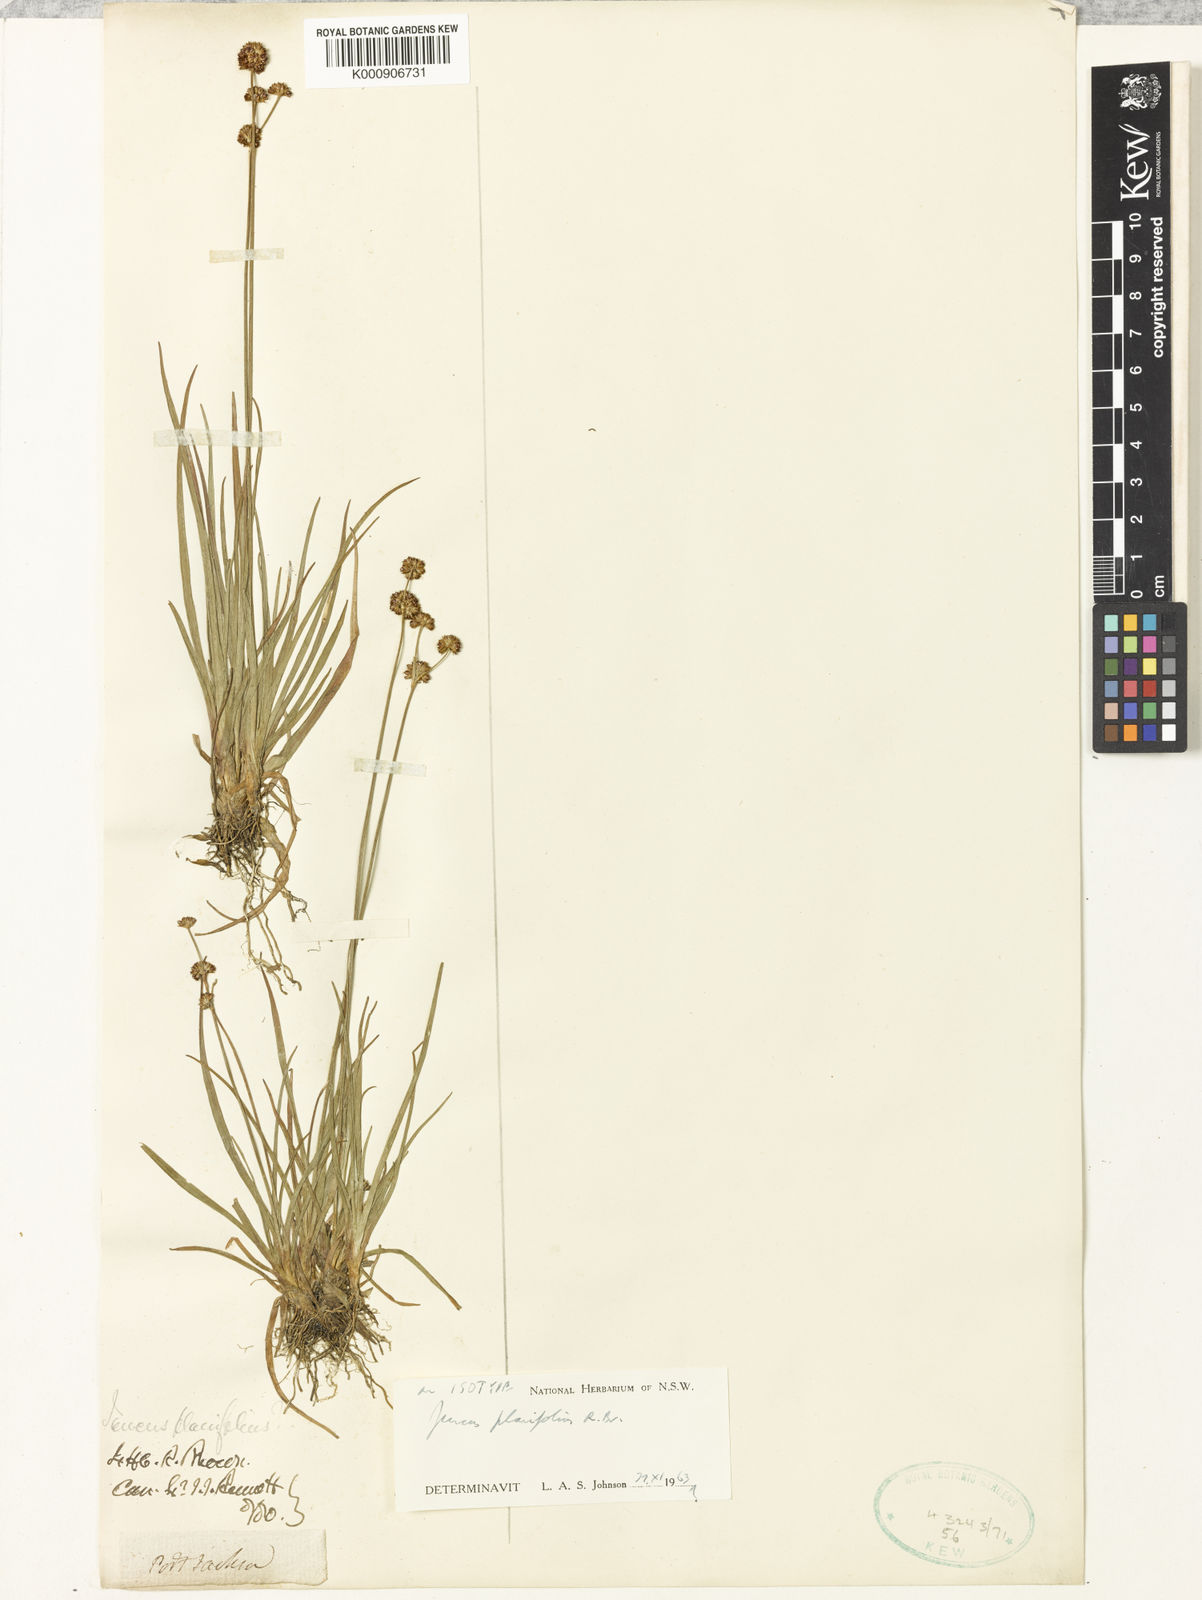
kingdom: Plantae
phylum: Tracheophyta
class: Liliopsida
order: Poales
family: Juncaceae
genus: Juncus
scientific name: Juncus planifolius
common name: Broadleaf rush
